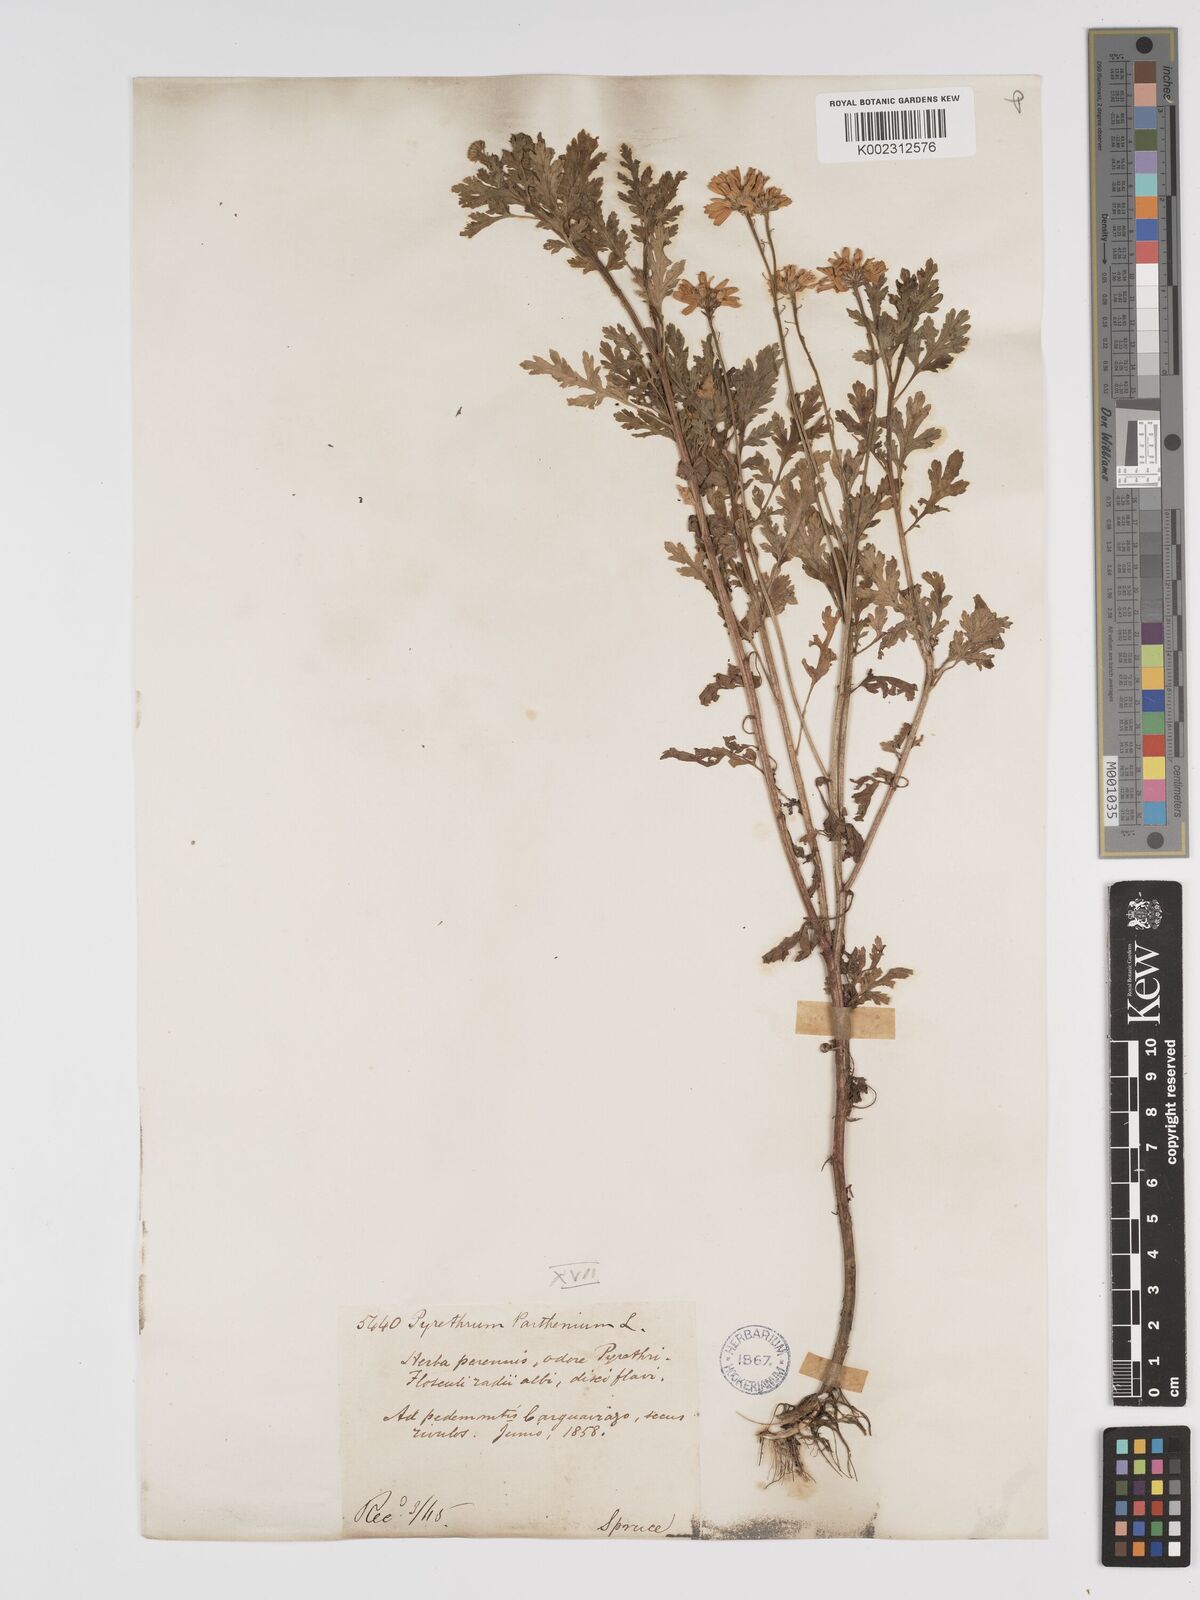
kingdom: Plantae
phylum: Tracheophyta
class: Magnoliopsida
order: Asterales
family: Asteraceae
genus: Tanacetum
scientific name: Tanacetum parthenium
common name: Feverfew
